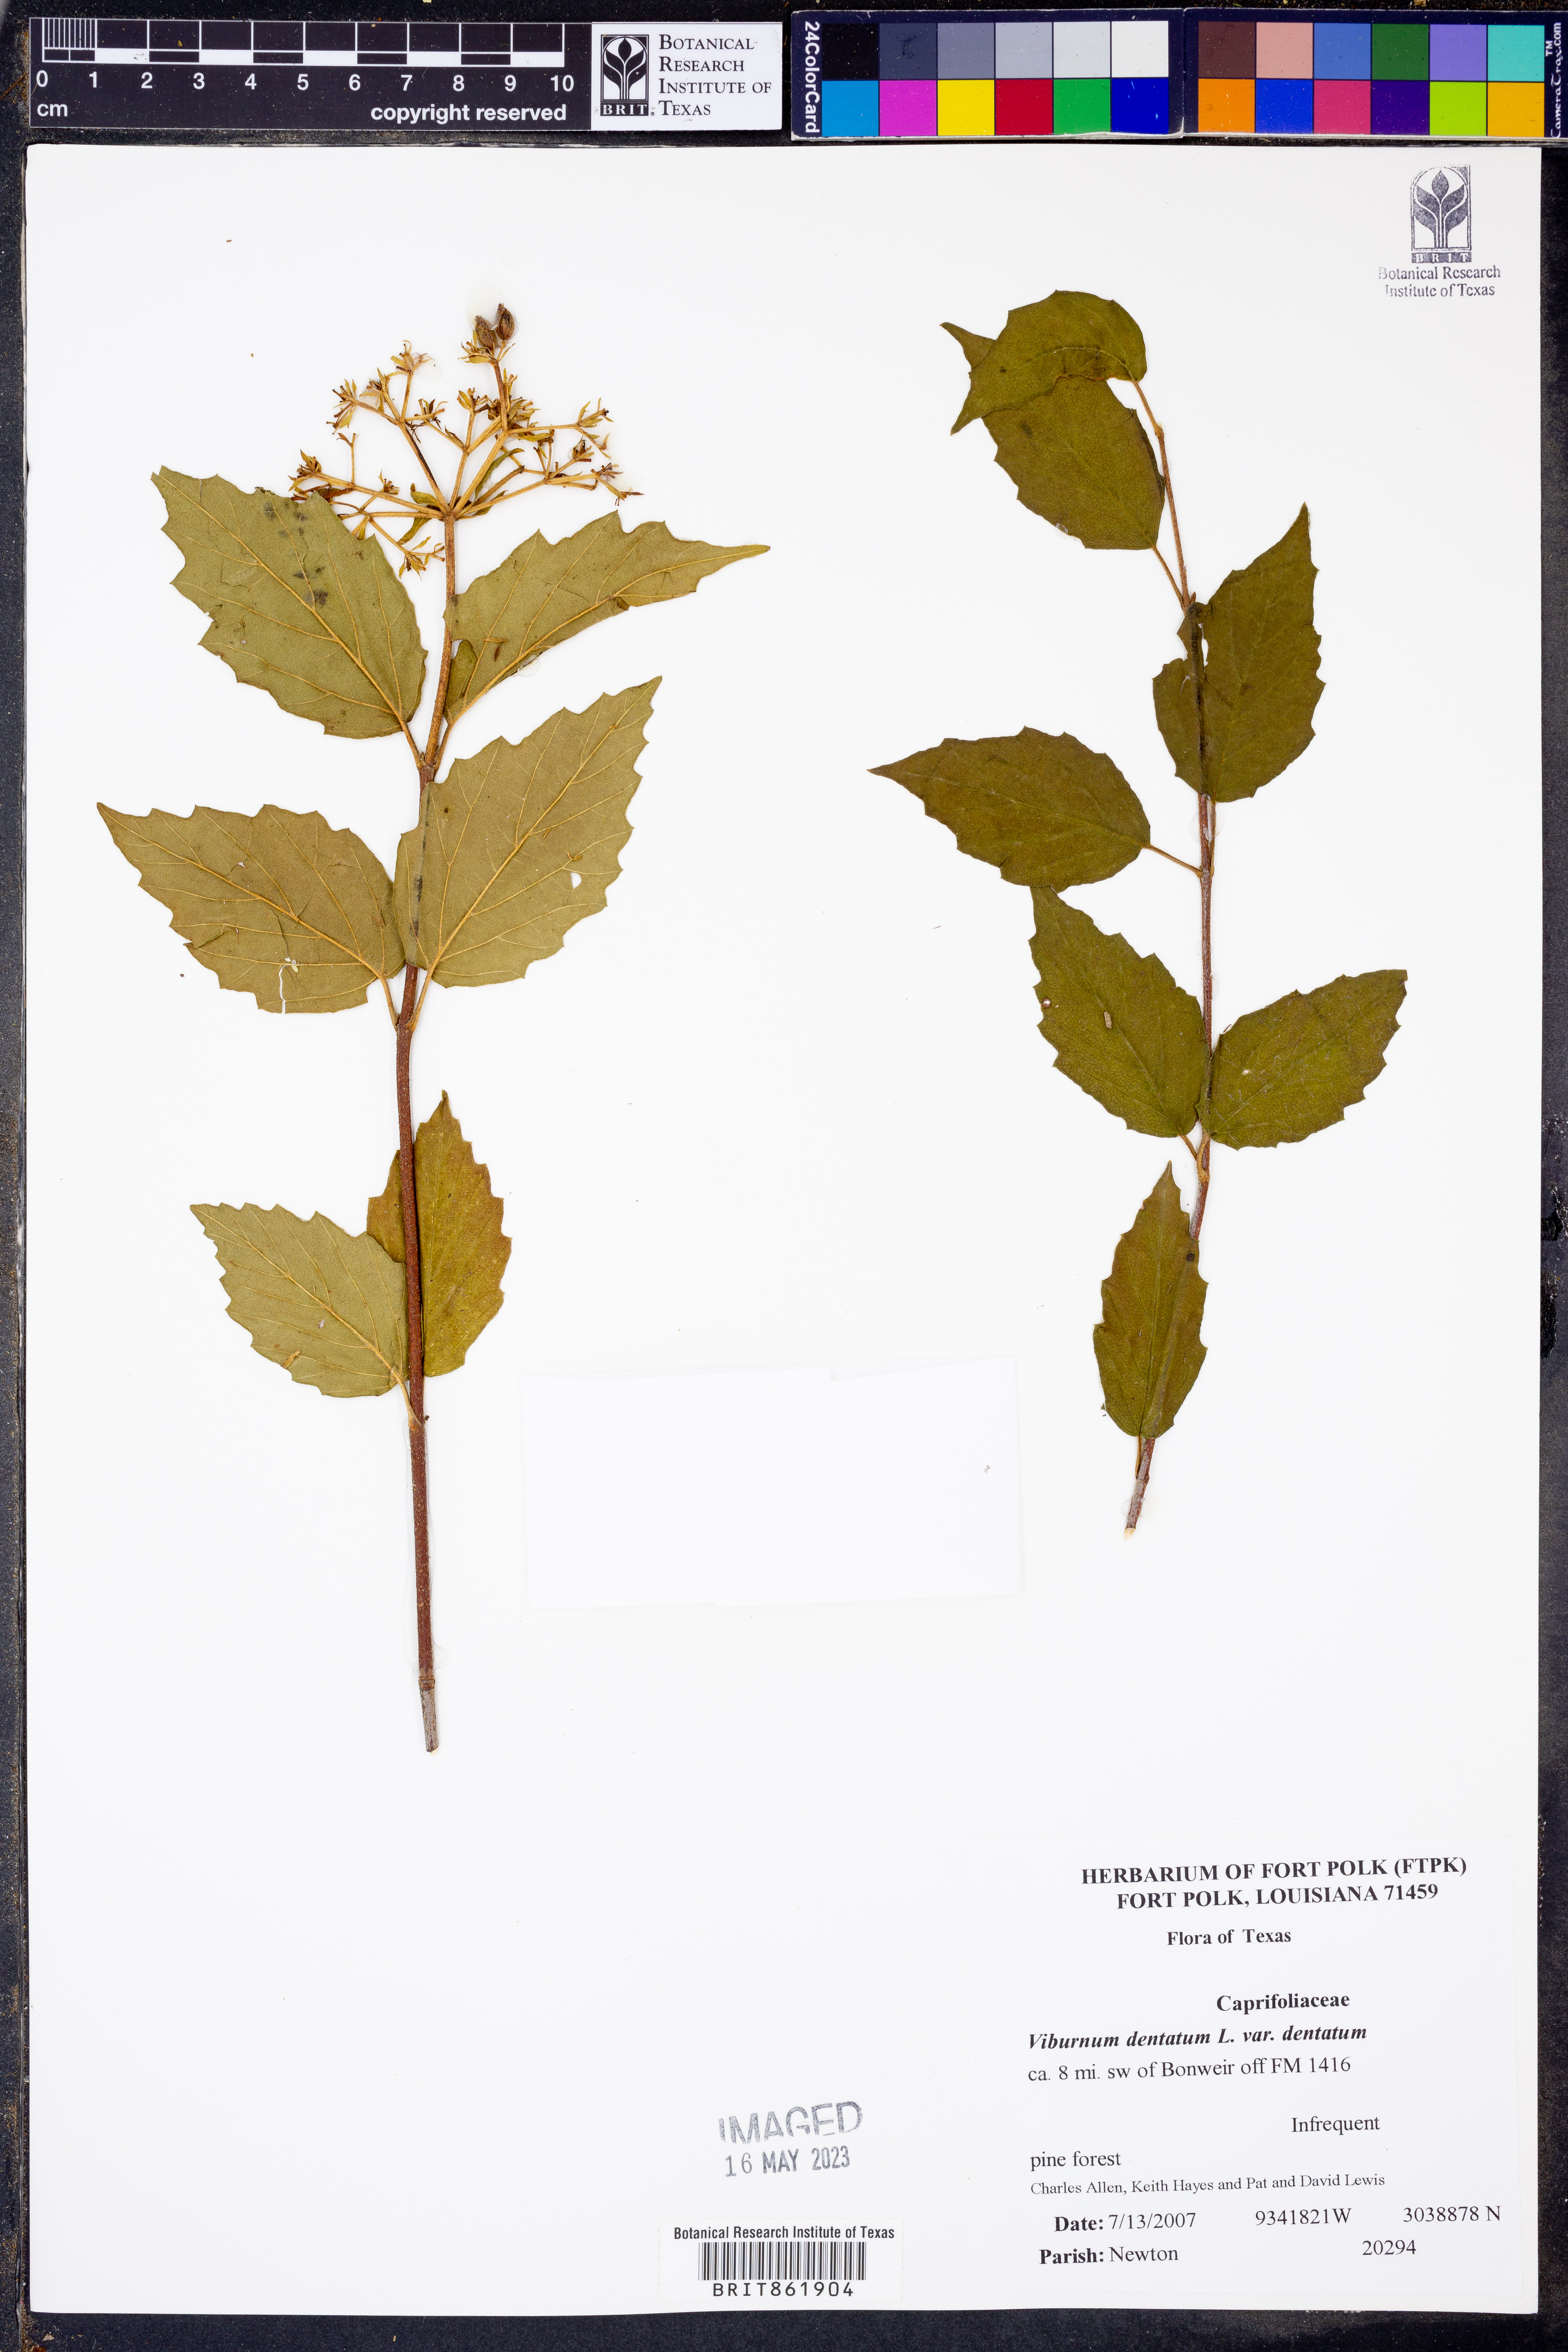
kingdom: Plantae
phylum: Tracheophyta
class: Magnoliopsida
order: Dipsacales
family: Viburnaceae
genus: Viburnum
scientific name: Viburnum dentatum
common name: Arrow-wood
